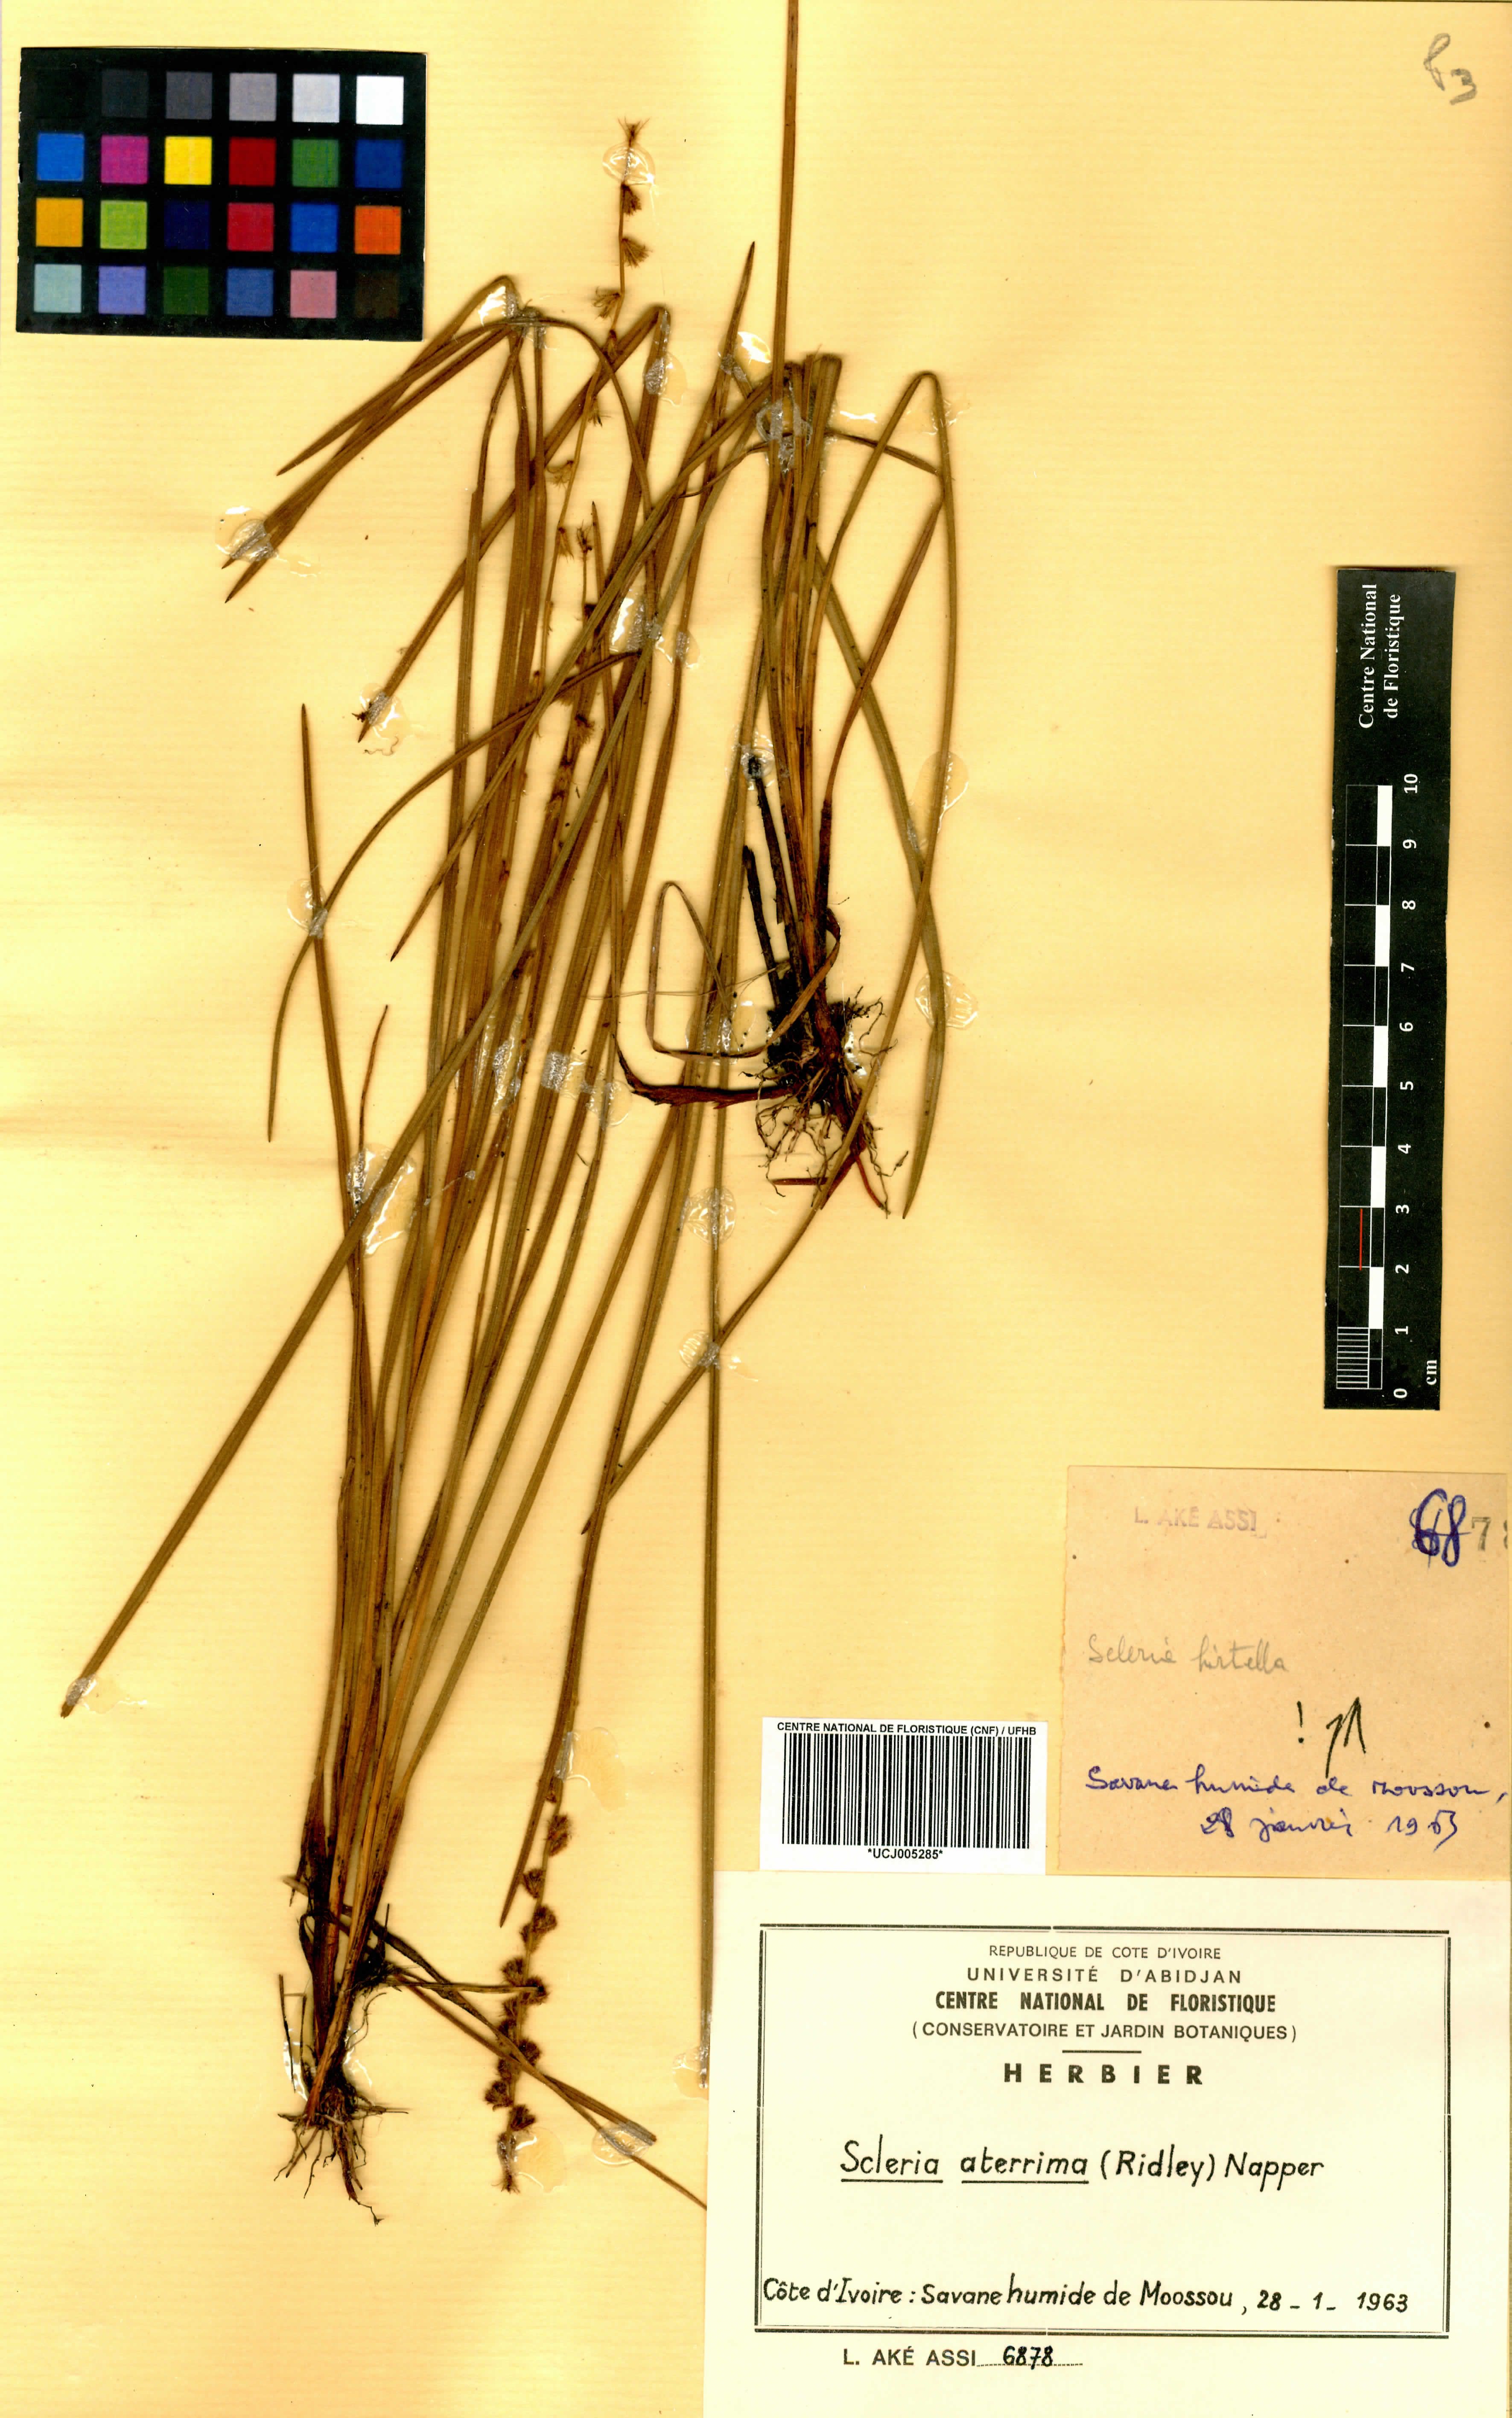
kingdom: Plantae
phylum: Tracheophyta
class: Liliopsida
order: Poales
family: Cyperaceae
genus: Scleria
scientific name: Scleria catophylla
